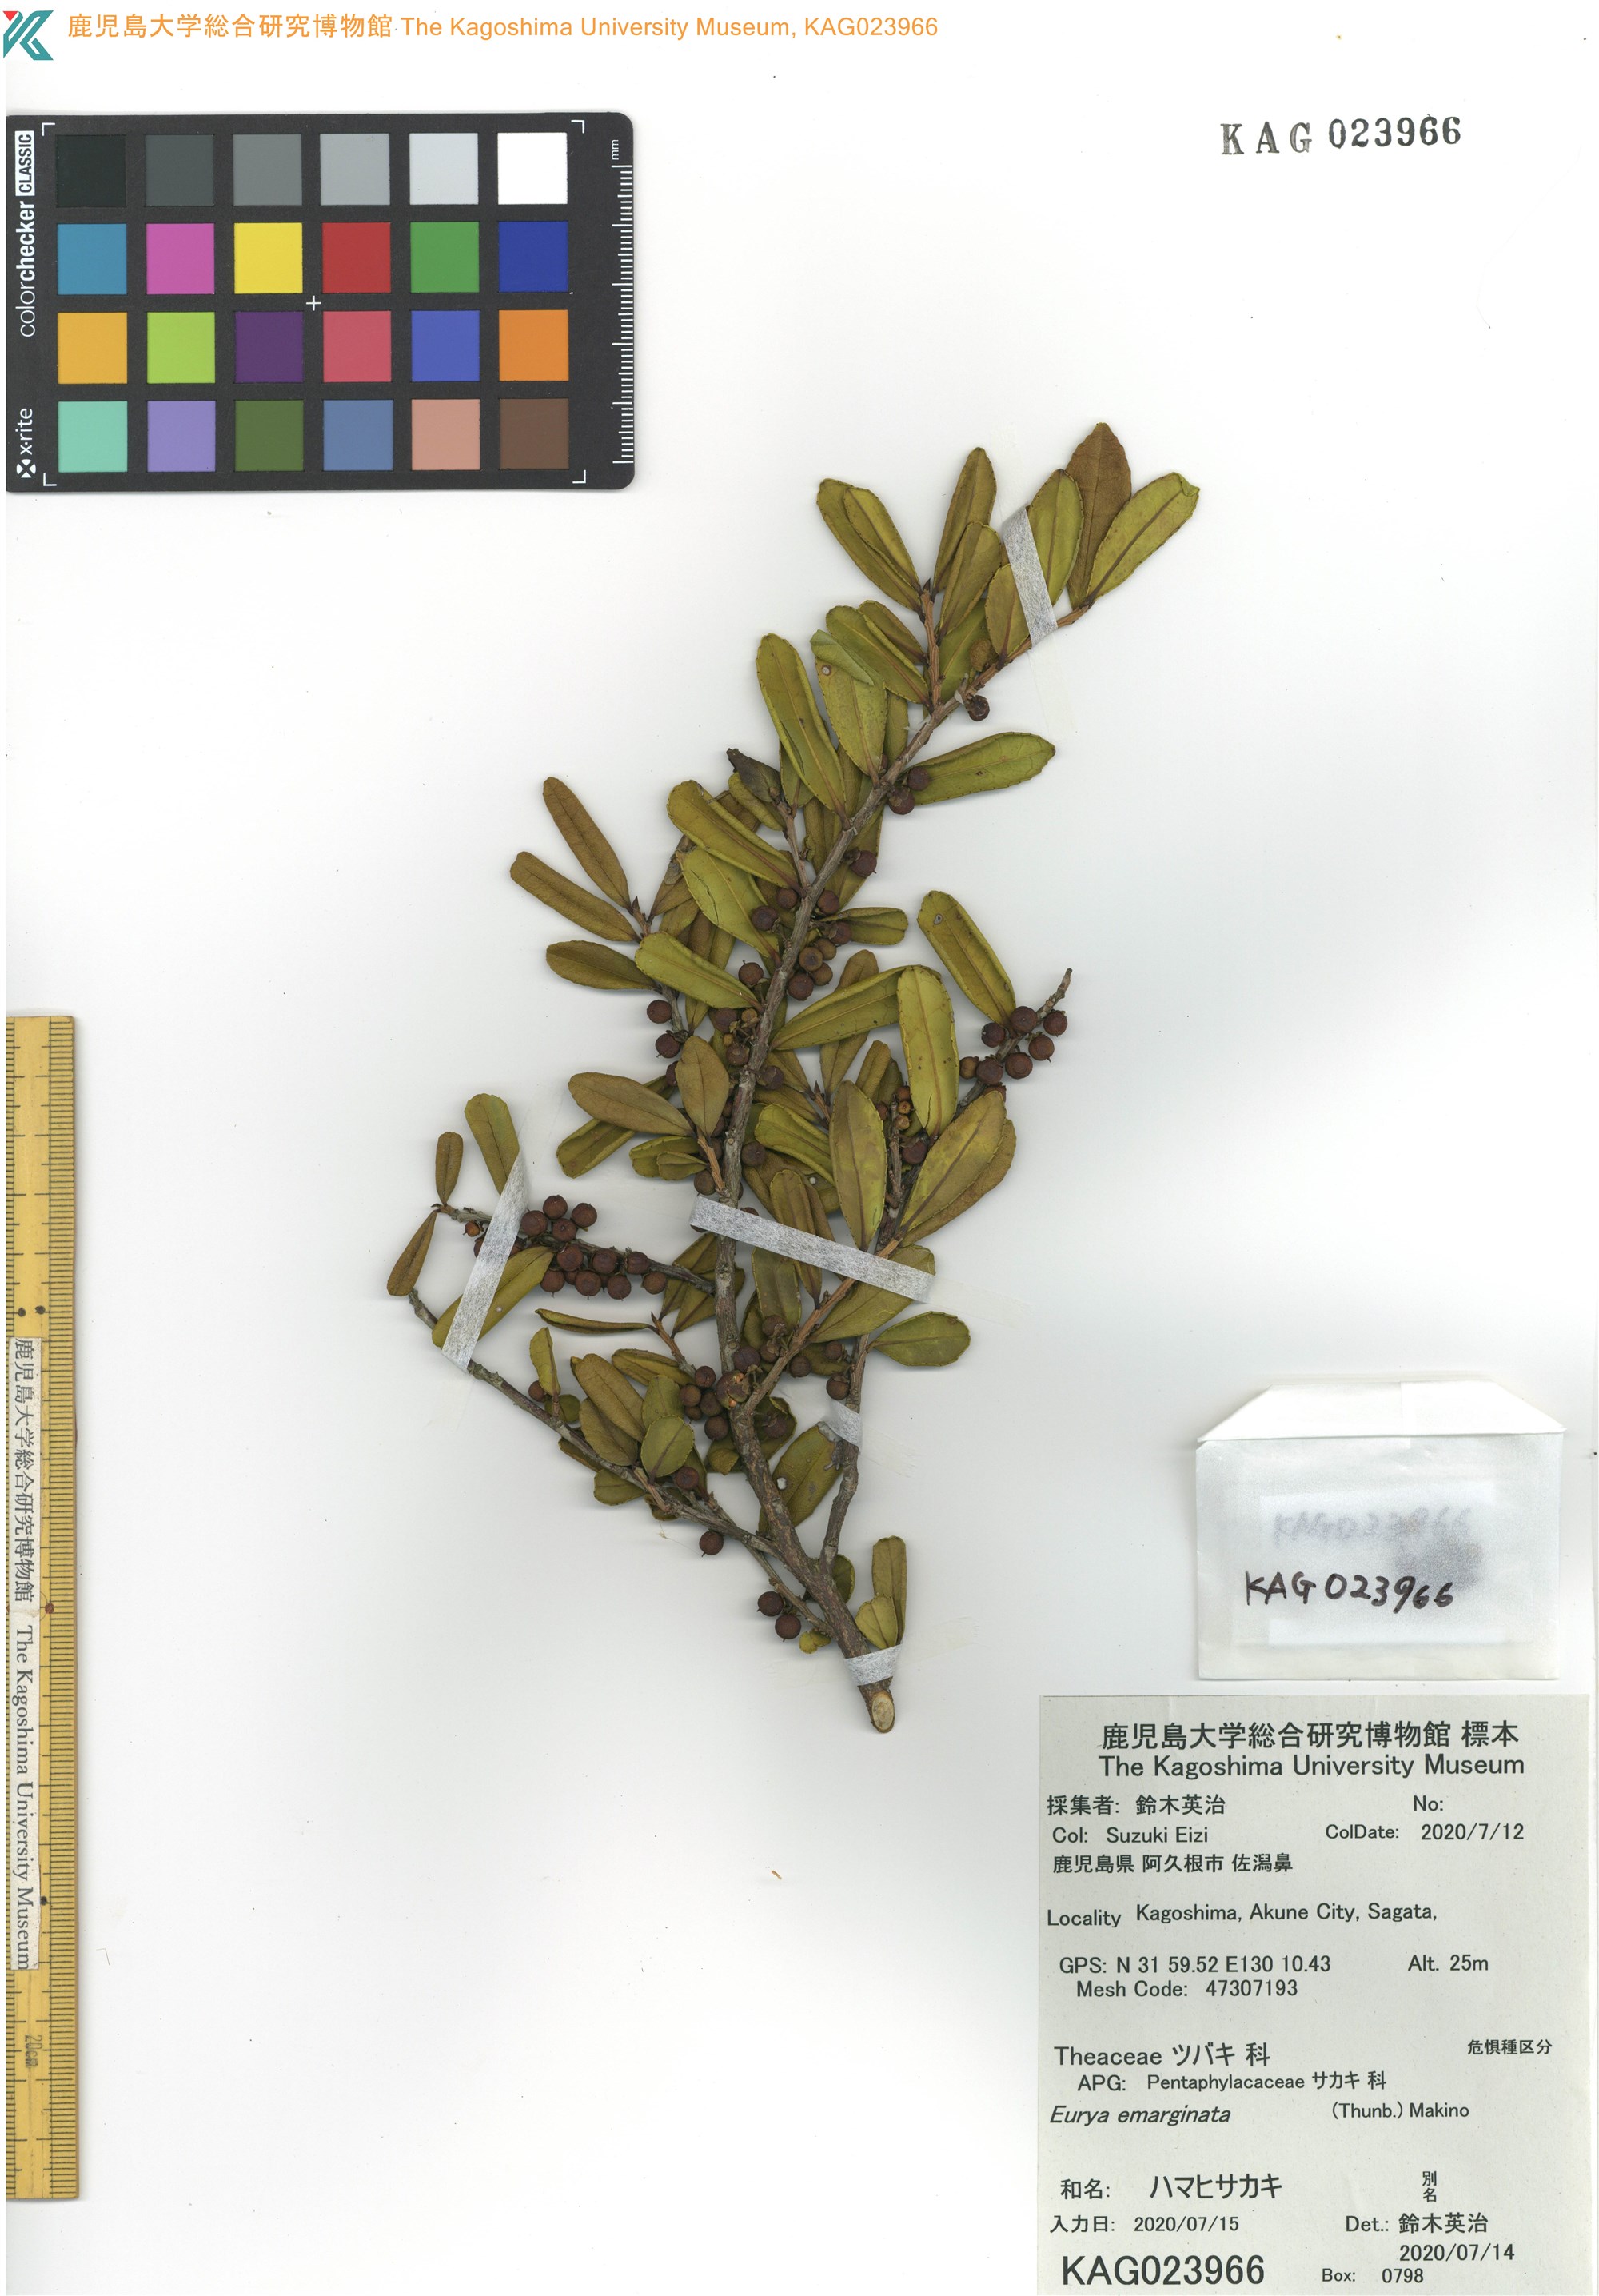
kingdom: Plantae
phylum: Tracheophyta
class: Magnoliopsida
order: Ericales
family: Pentaphylacaceae
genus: Eurya
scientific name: Eurya emarginata
